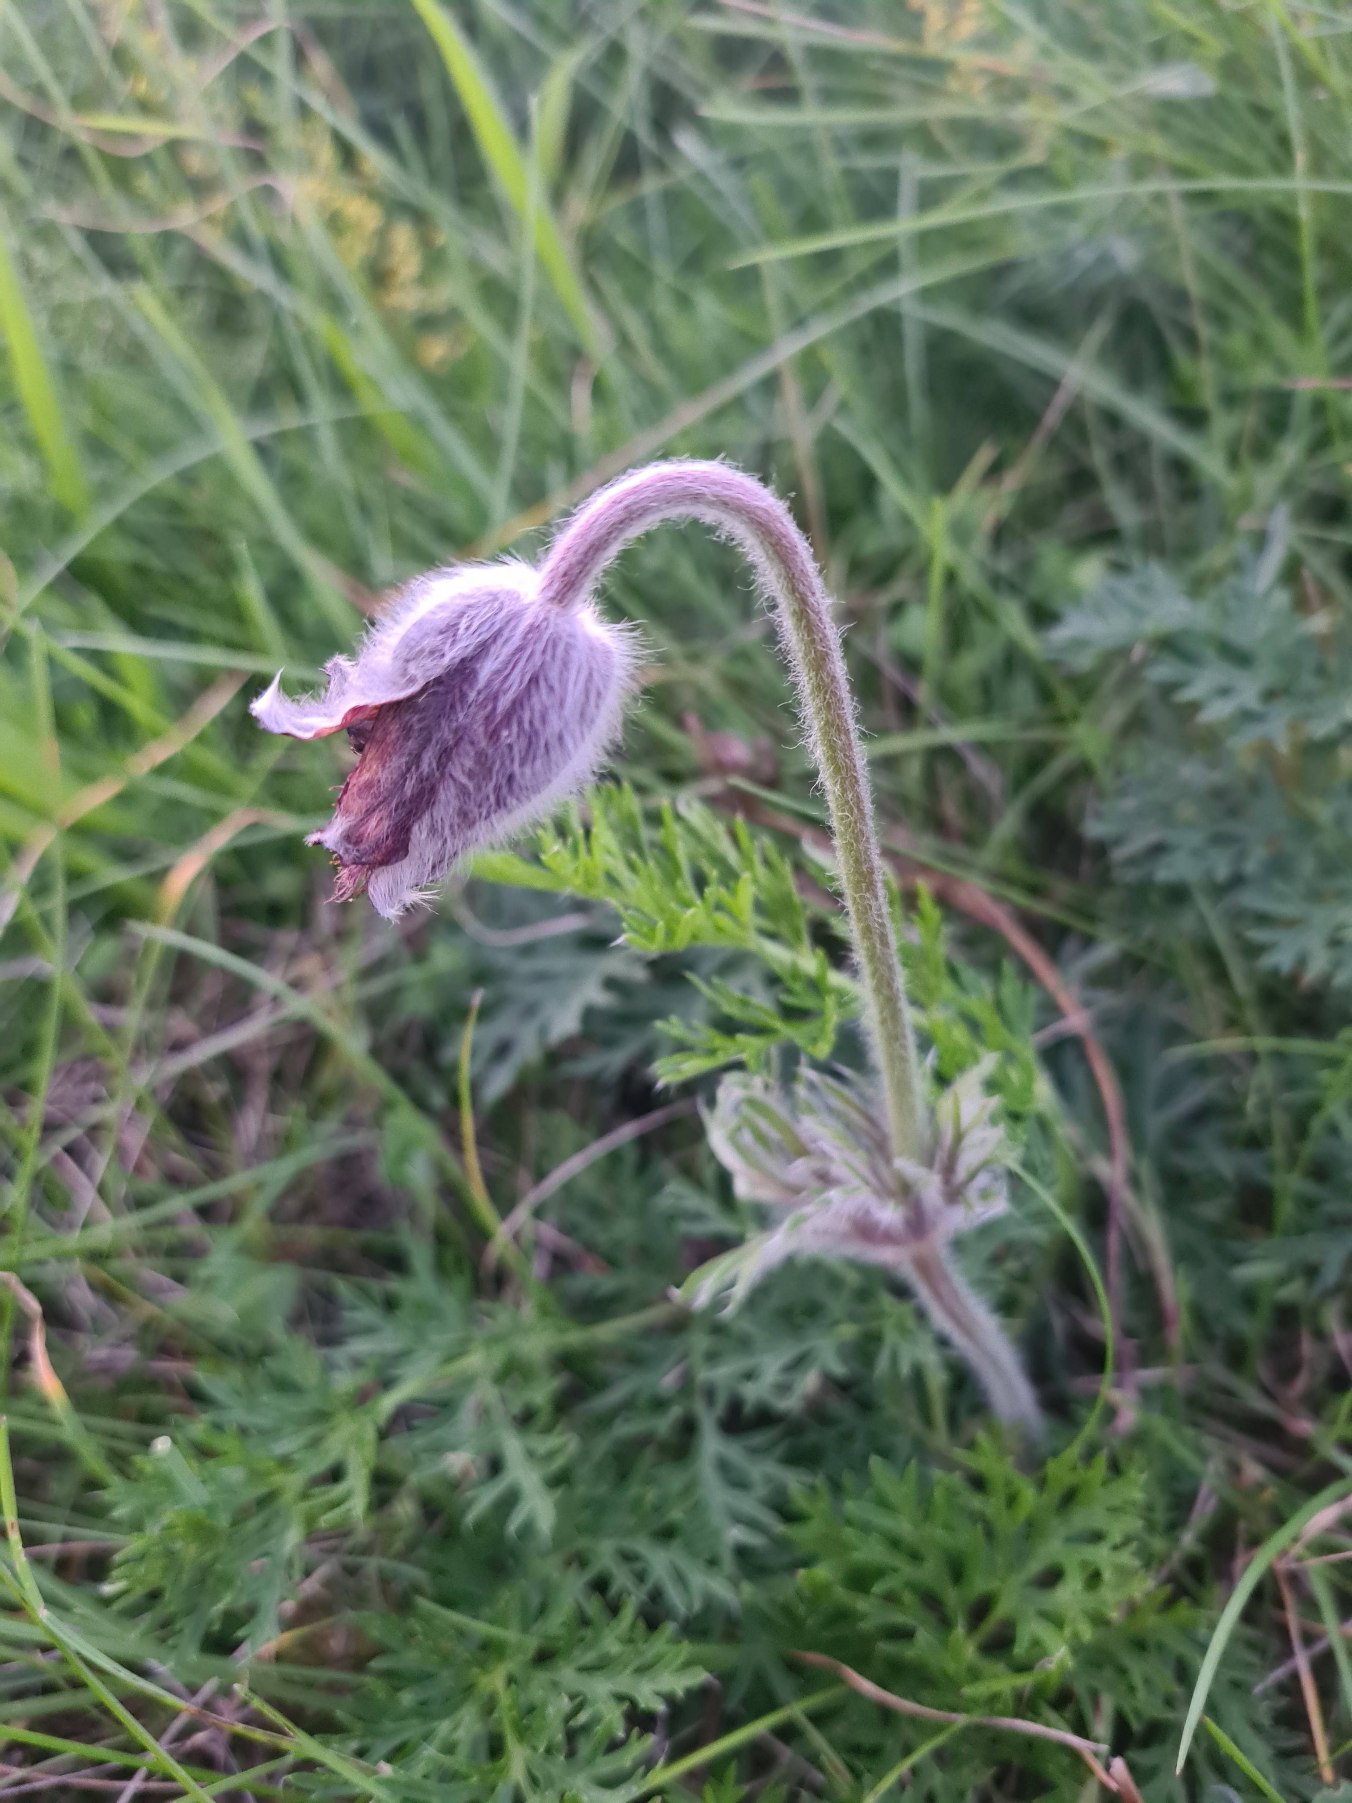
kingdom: Plantae
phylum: Tracheophyta
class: Magnoliopsida
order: Ranunculales
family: Ranunculaceae
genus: Pulsatilla
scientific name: Pulsatilla pratensis
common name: Nikkende kobjælde
